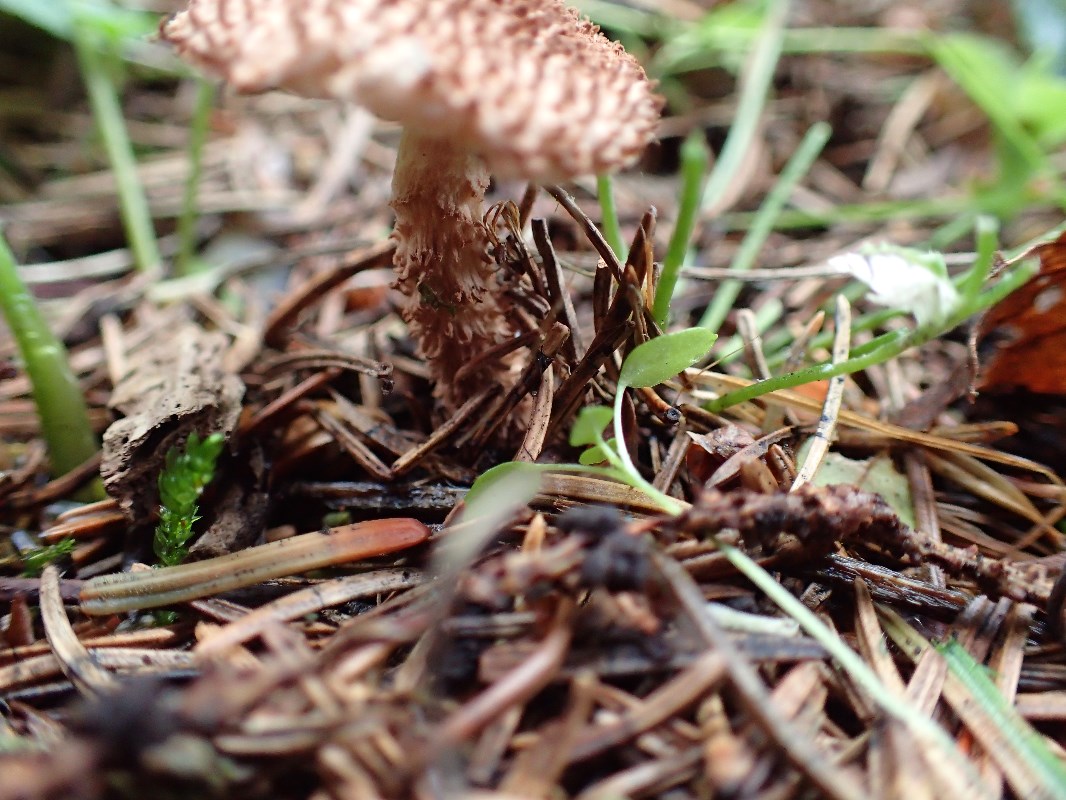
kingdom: Fungi
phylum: Basidiomycota
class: Agaricomycetes
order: Agaricales
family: Agaricaceae
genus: Echinoderma
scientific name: Echinoderma echinaceum
